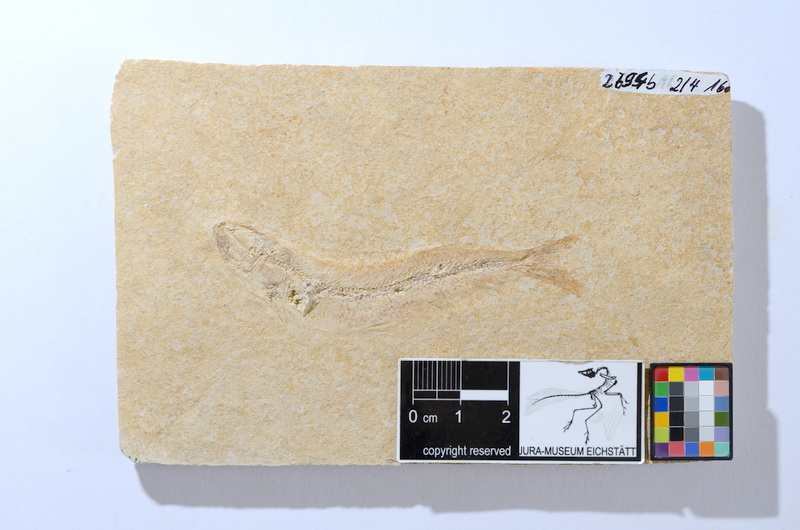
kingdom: Animalia
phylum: Chordata
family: Allothrissopidae
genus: Allothrissops
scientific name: Allothrissops mesogaster
